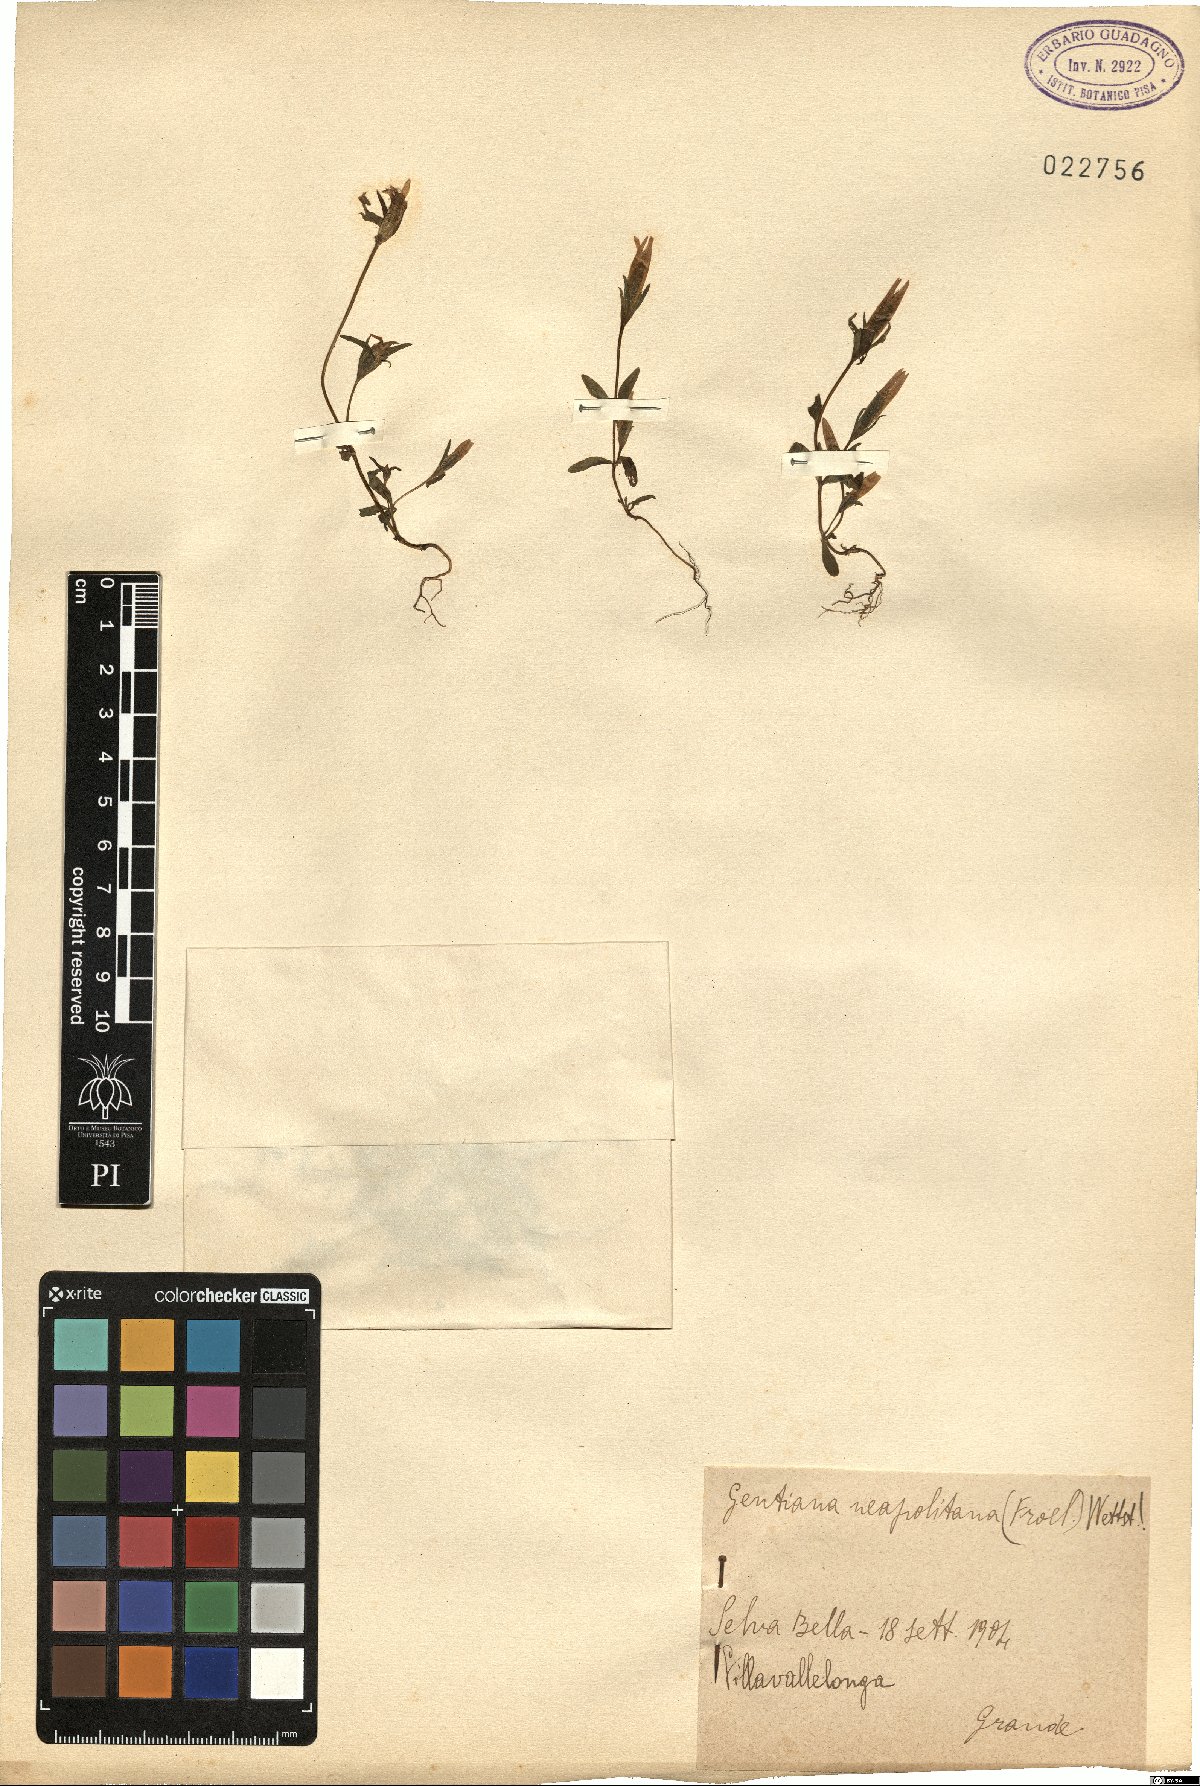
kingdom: Plantae
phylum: Tracheophyta
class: Magnoliopsida
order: Gentianales
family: Gentianaceae
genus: Gentianella
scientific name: Gentianella columnae
